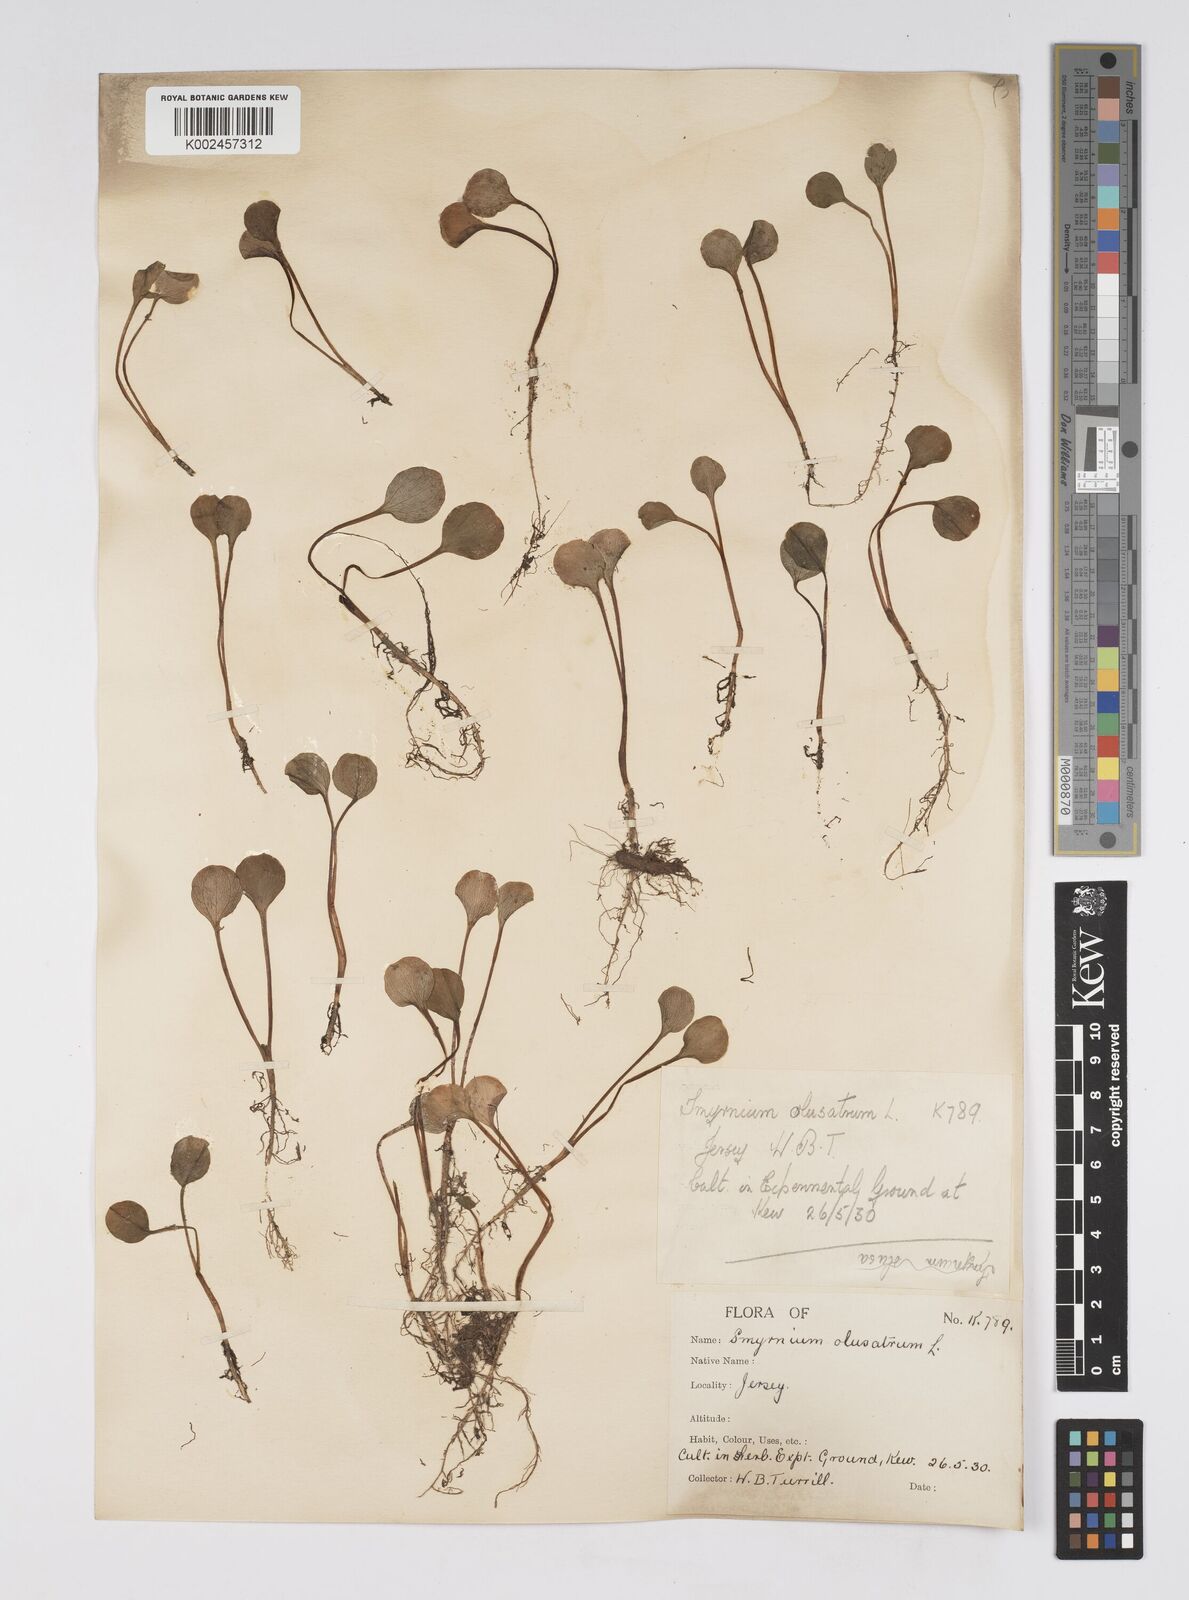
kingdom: Plantae
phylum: Tracheophyta
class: Magnoliopsida
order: Apiales
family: Apiaceae
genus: Smyrnium
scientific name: Smyrnium olusatrum
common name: Alexanders
